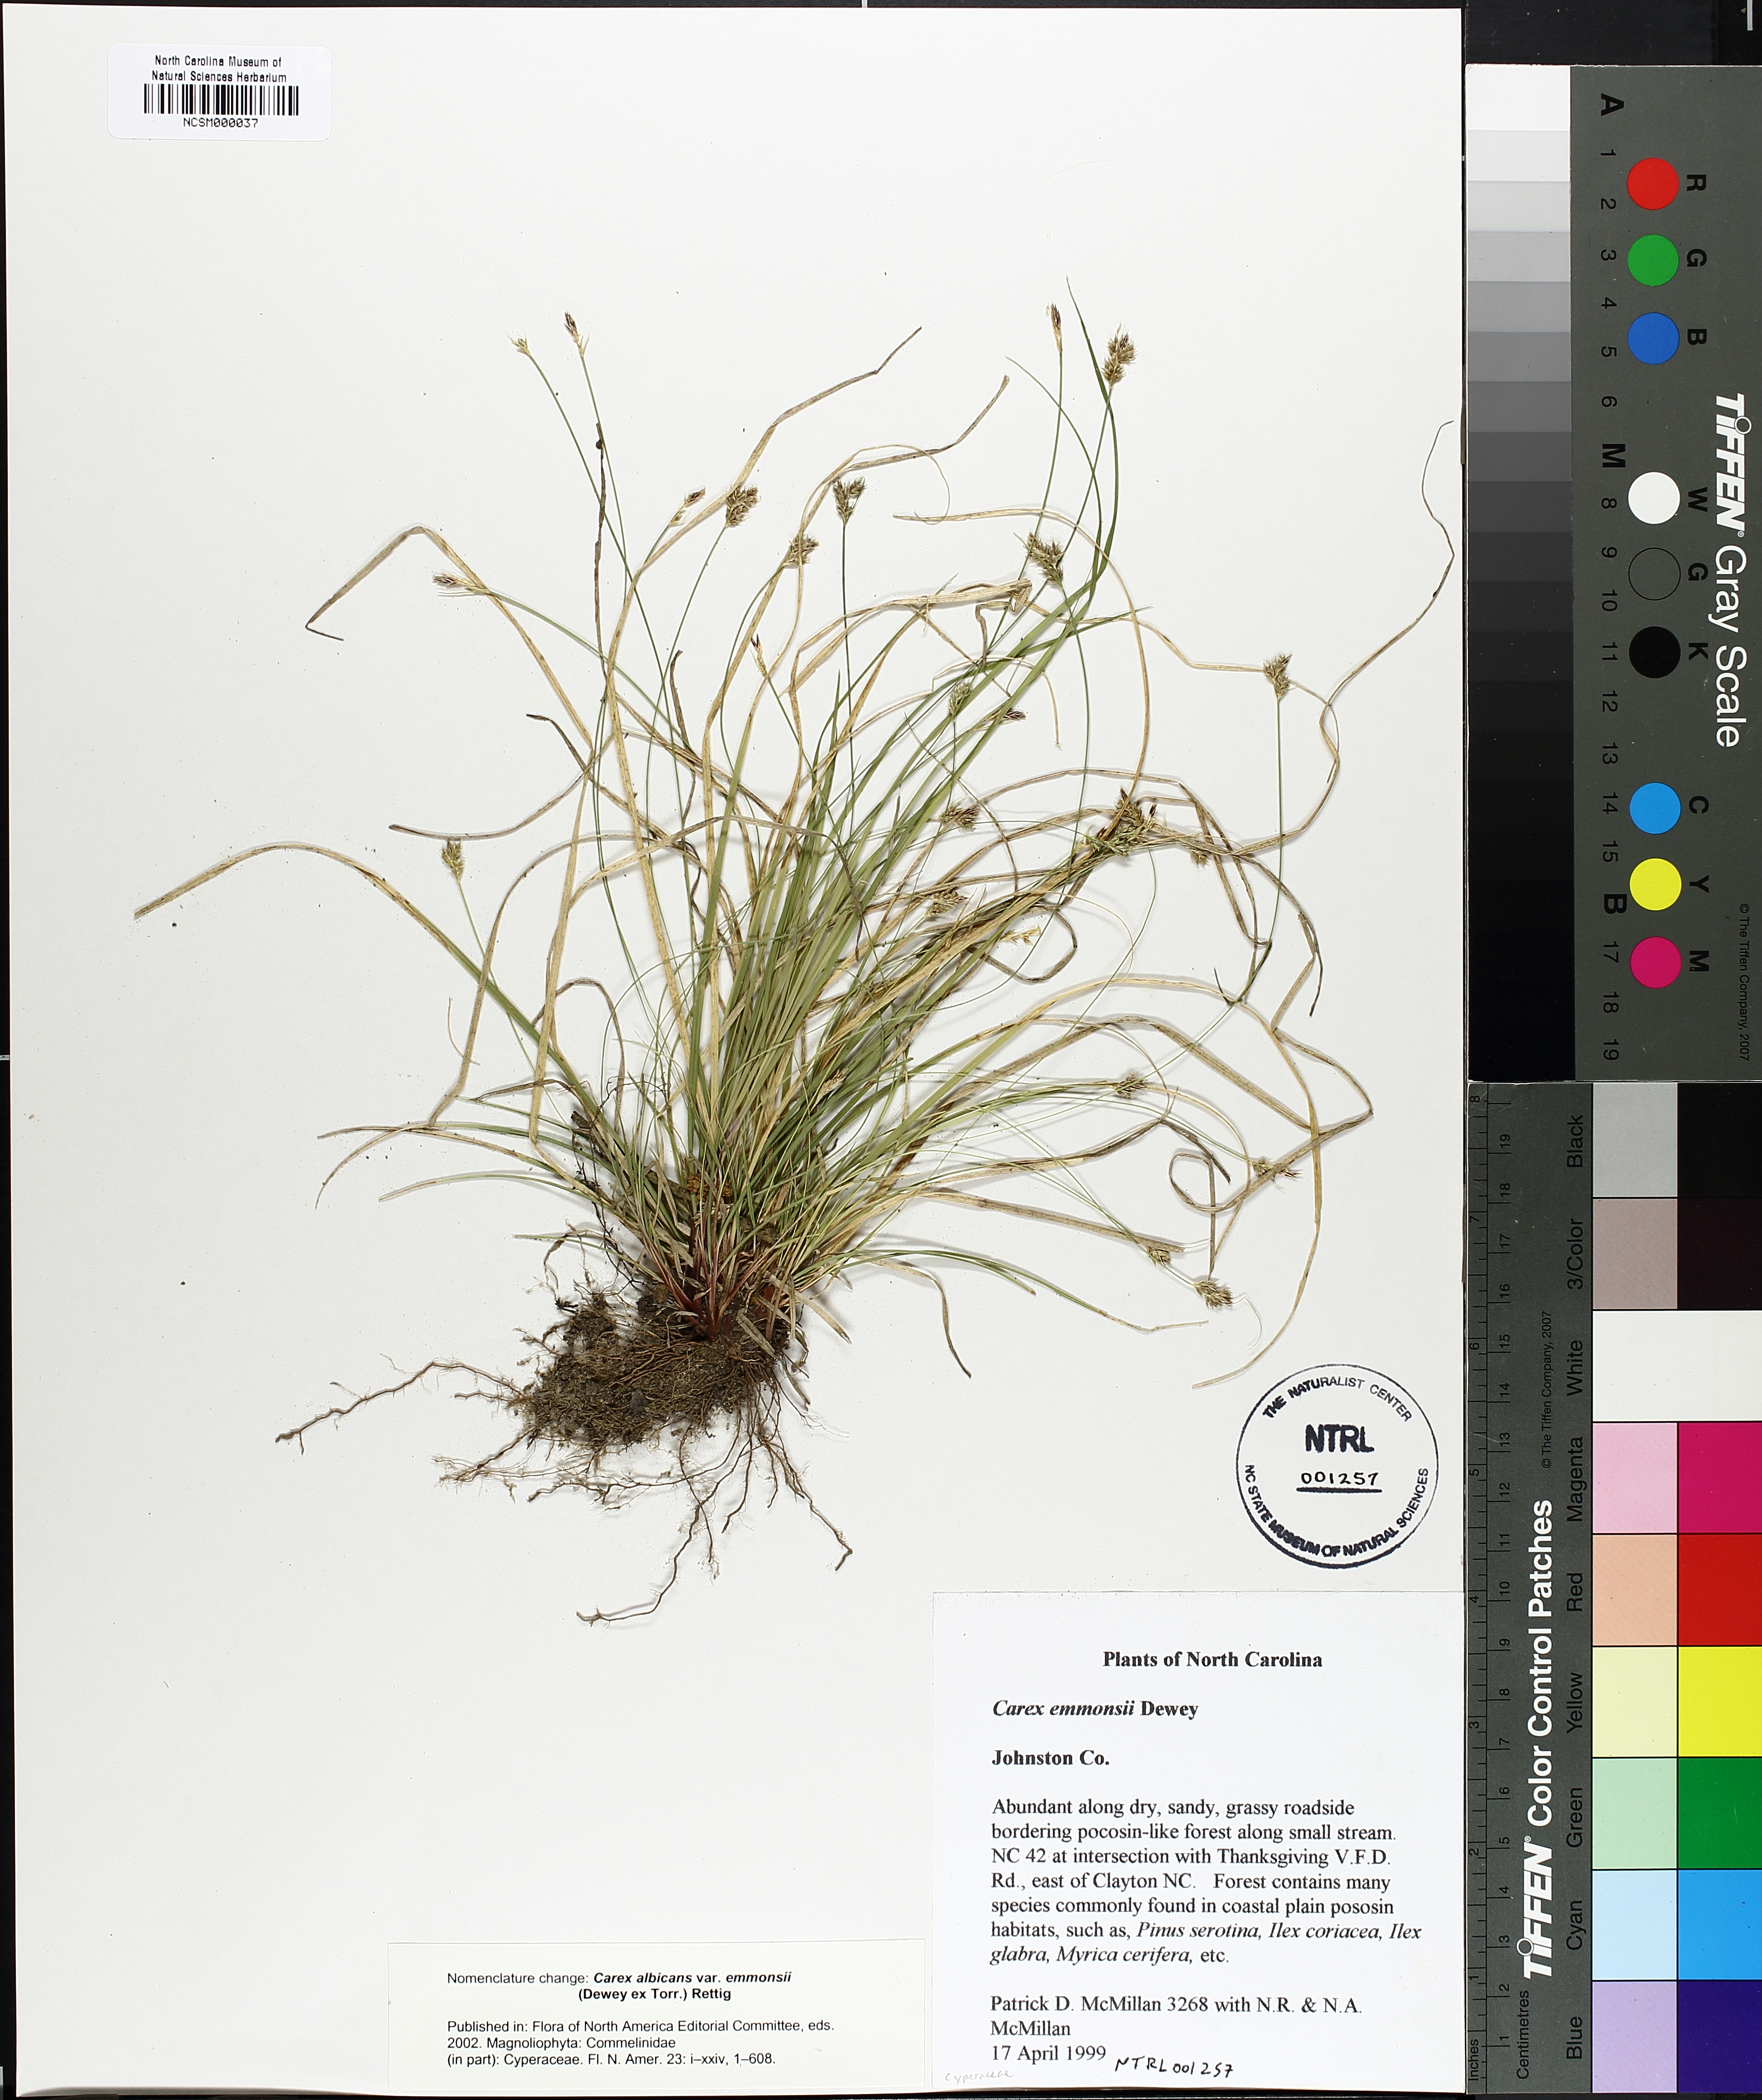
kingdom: Plantae
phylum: Tracheophyta
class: Liliopsida
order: Poales
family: Cyperaceae
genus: Carex
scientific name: Carex albicans
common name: Bellow-beaked sedge
